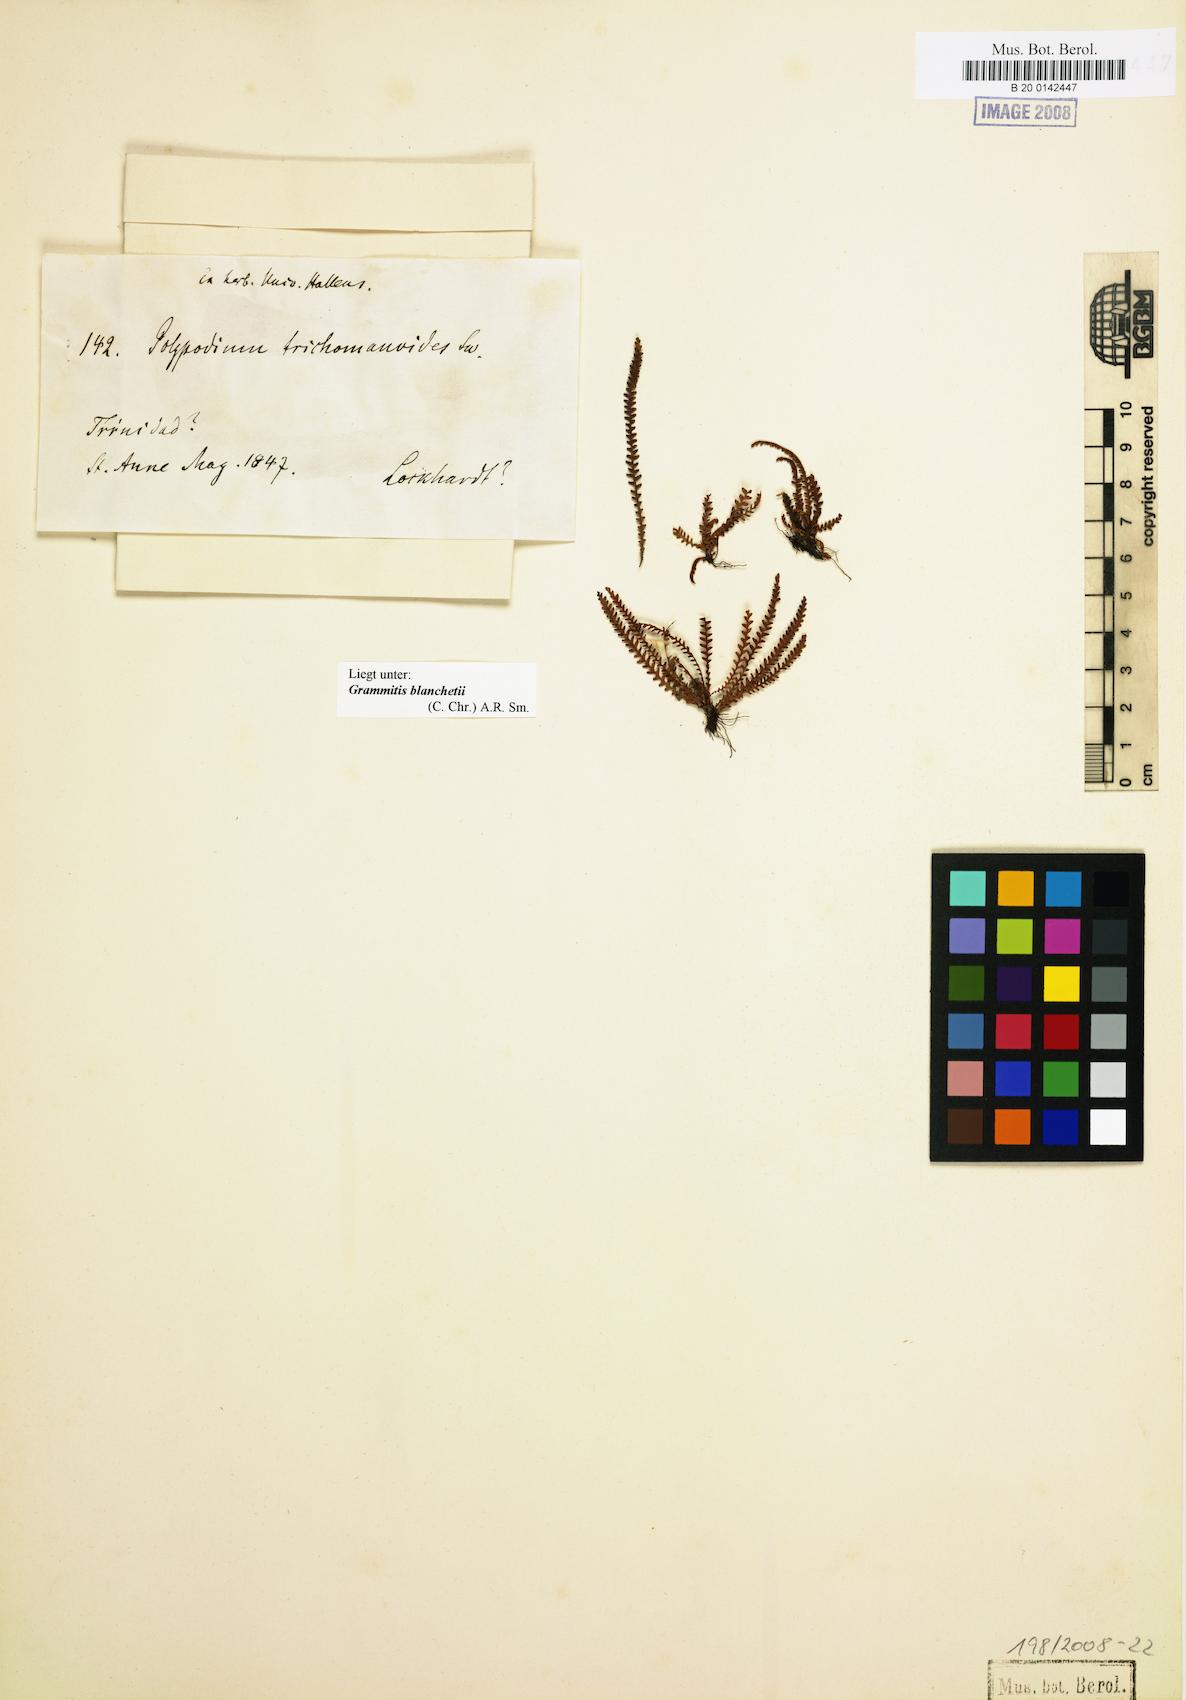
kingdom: Plantae
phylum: Tracheophyta
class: Polypodiopsida
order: Polypodiales
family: Polypodiaceae
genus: Moranopteris
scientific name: Moranopteris nana
